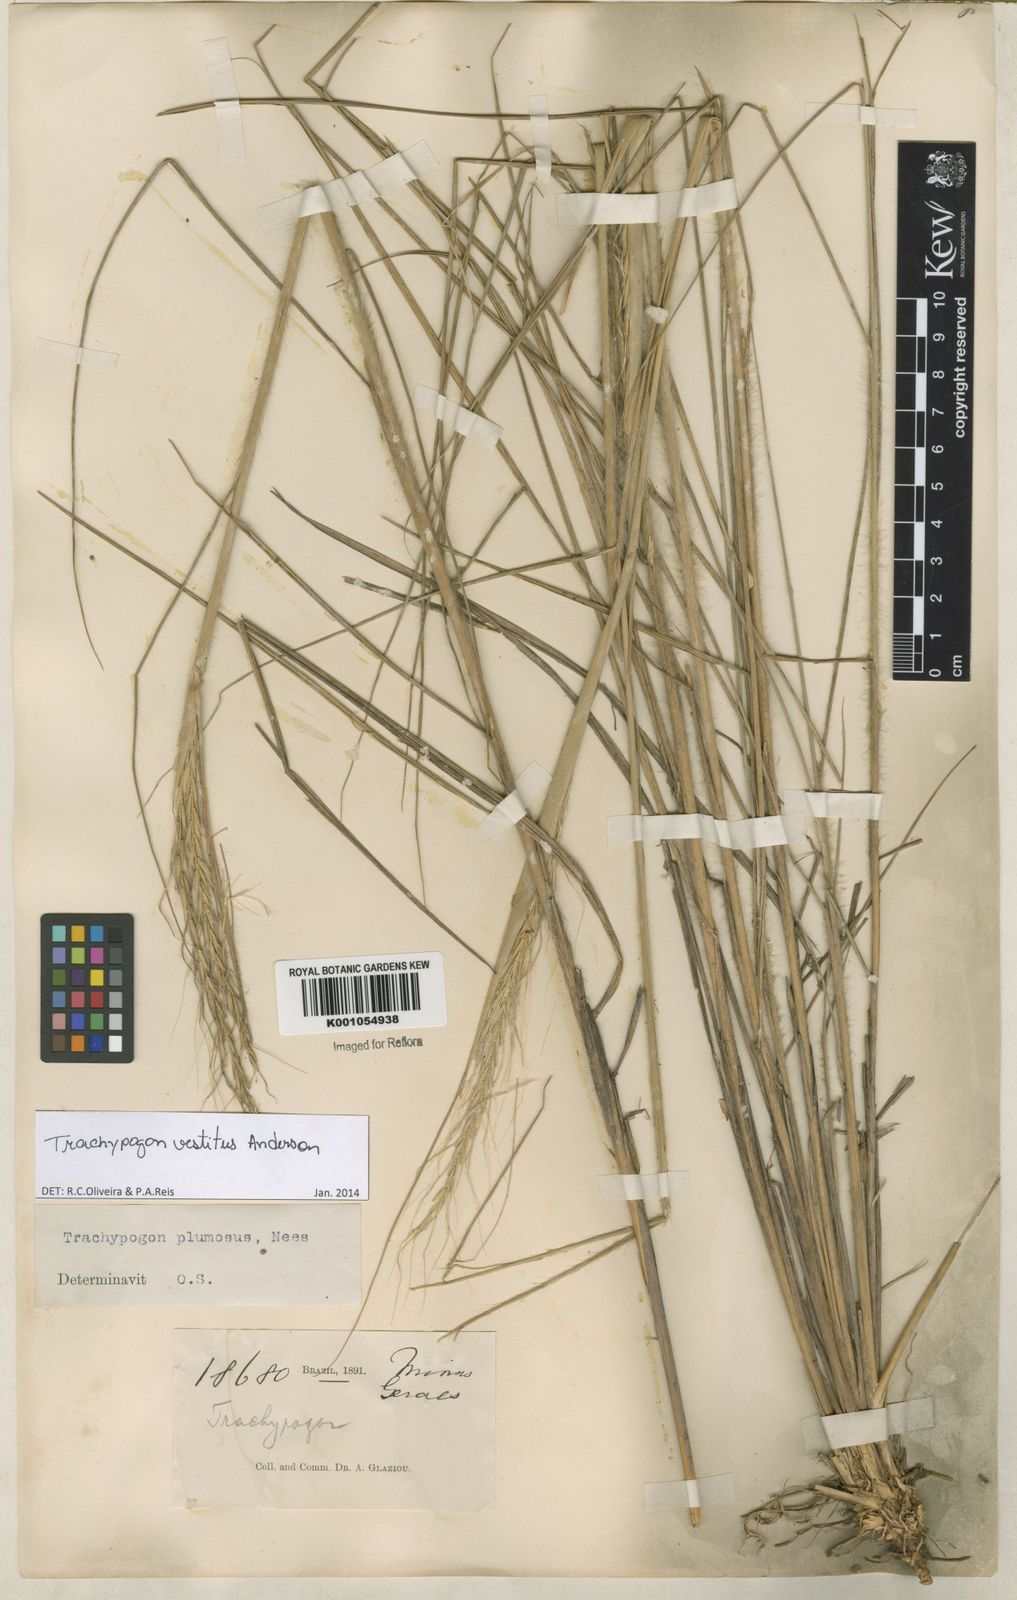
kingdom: Plantae
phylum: Tracheophyta
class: Liliopsida
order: Poales
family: Poaceae
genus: Trachypogon
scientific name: Trachypogon vestitus
